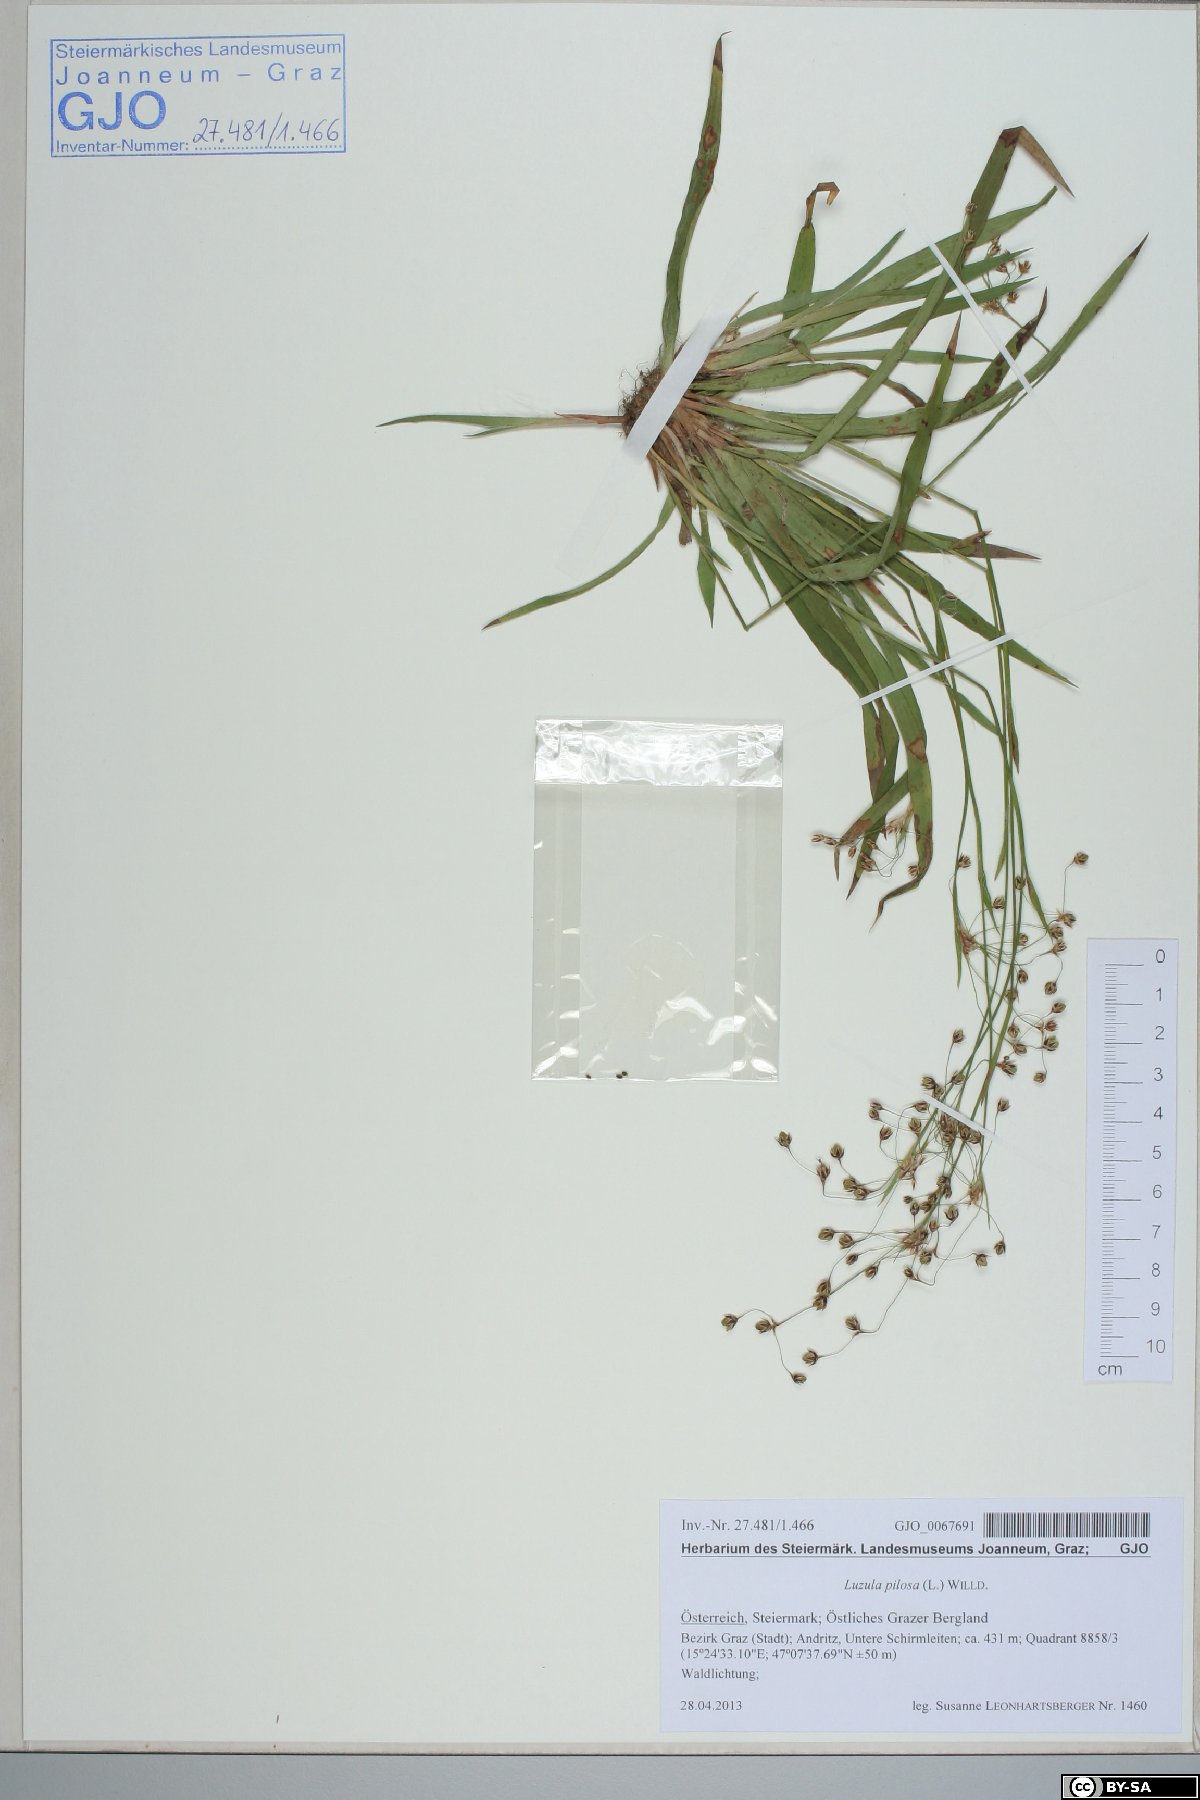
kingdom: Plantae
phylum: Tracheophyta
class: Liliopsida
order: Poales
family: Juncaceae
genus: Luzula
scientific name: Luzula pilosa
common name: Hairy wood-rush
